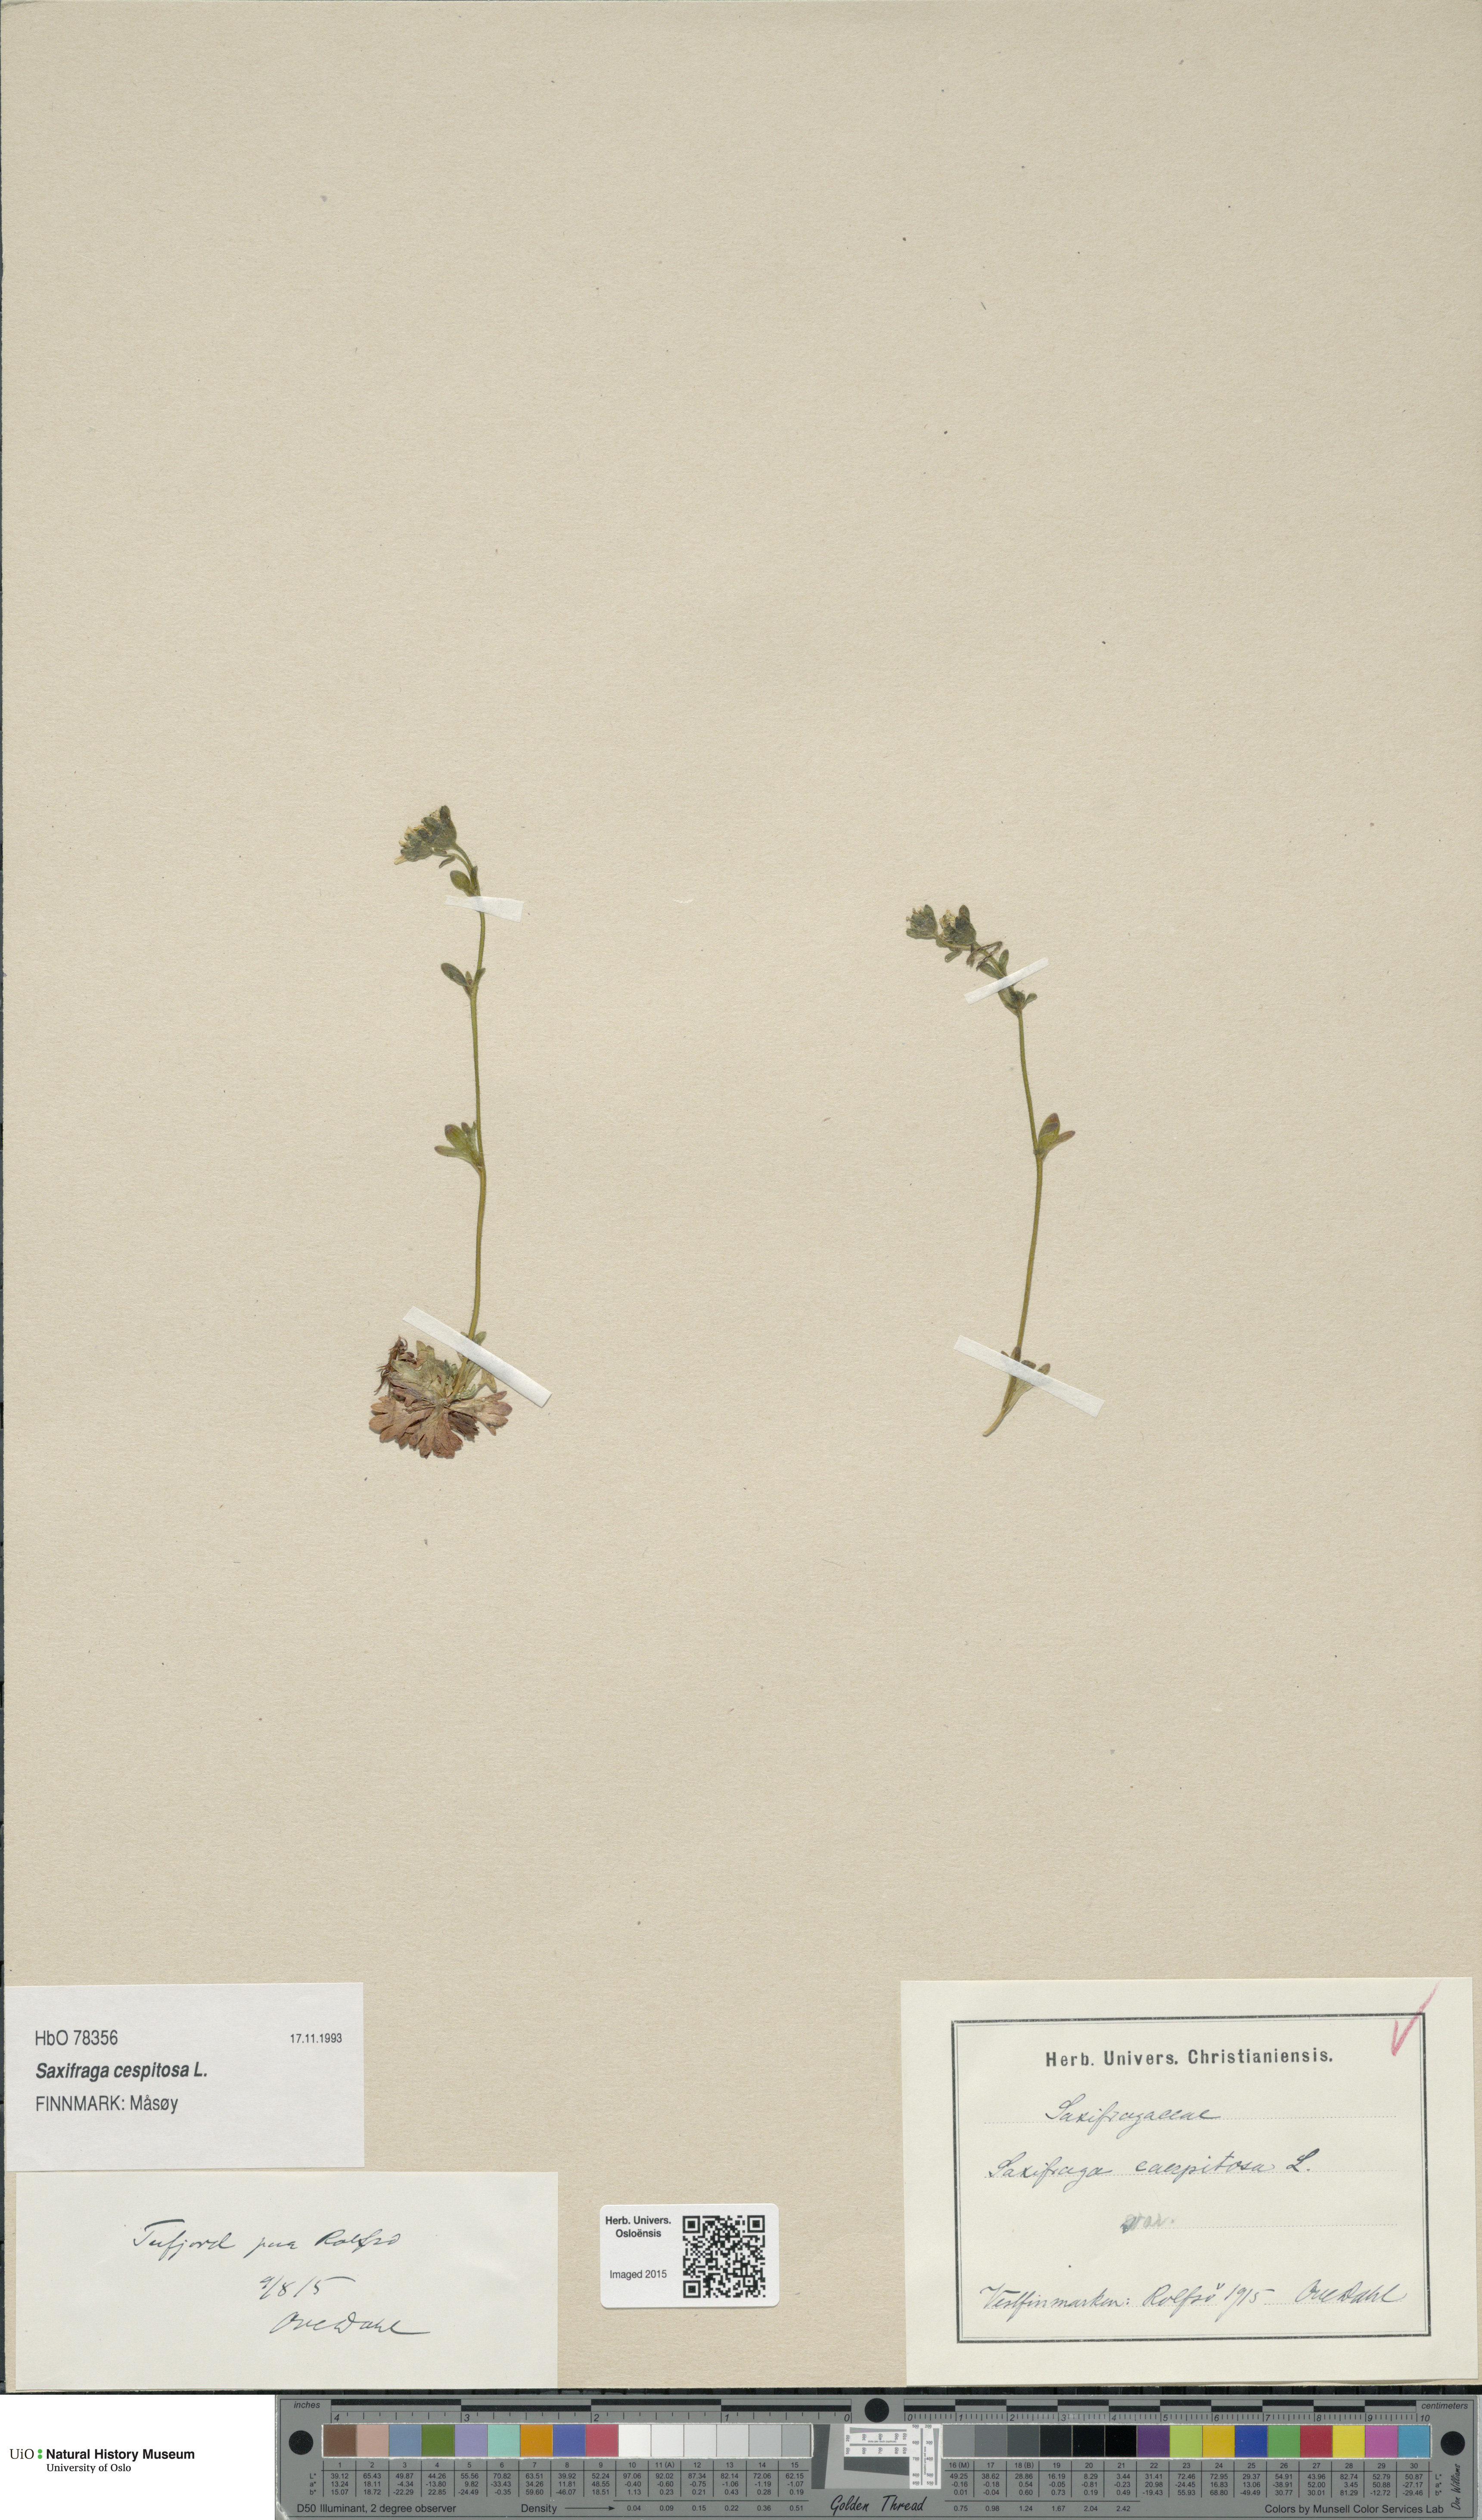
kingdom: Plantae
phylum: Tracheophyta
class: Magnoliopsida
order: Saxifragales
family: Saxifragaceae
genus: Saxifraga
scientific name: Saxifraga cespitosa
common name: Tufted saxifrage
